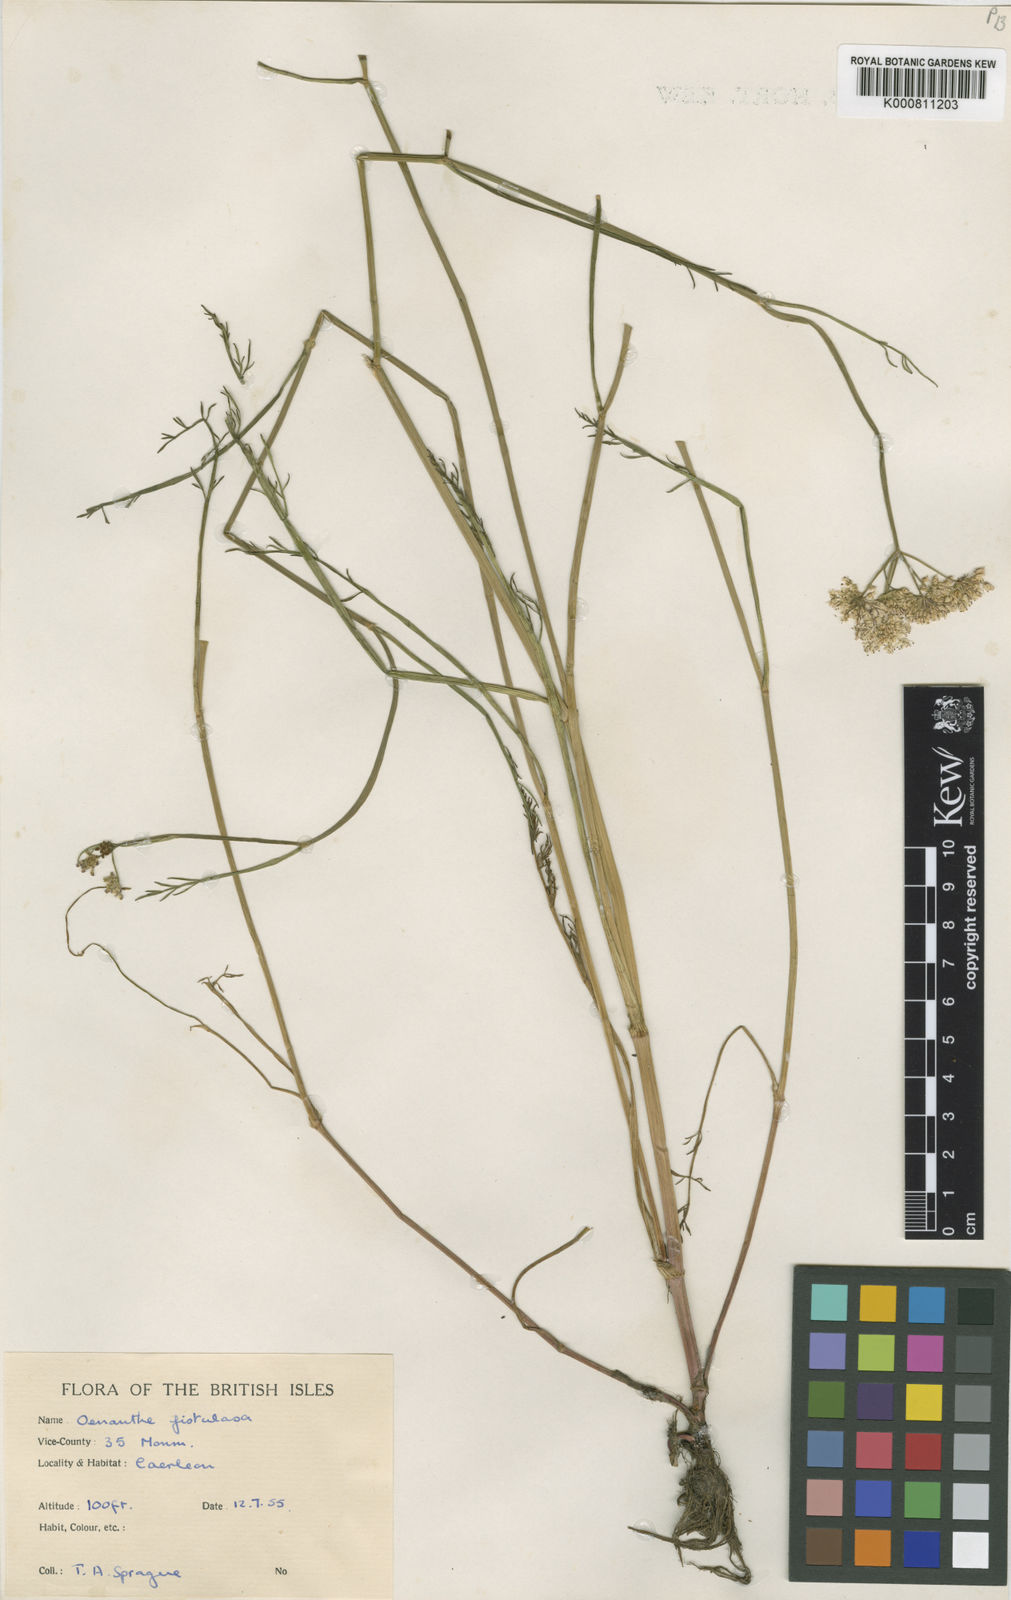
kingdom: Plantae
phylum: Tracheophyta
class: Magnoliopsida
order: Apiales
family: Apiaceae
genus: Oenanthe
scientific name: Oenanthe fistulosa
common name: Tubular water-dropwort
